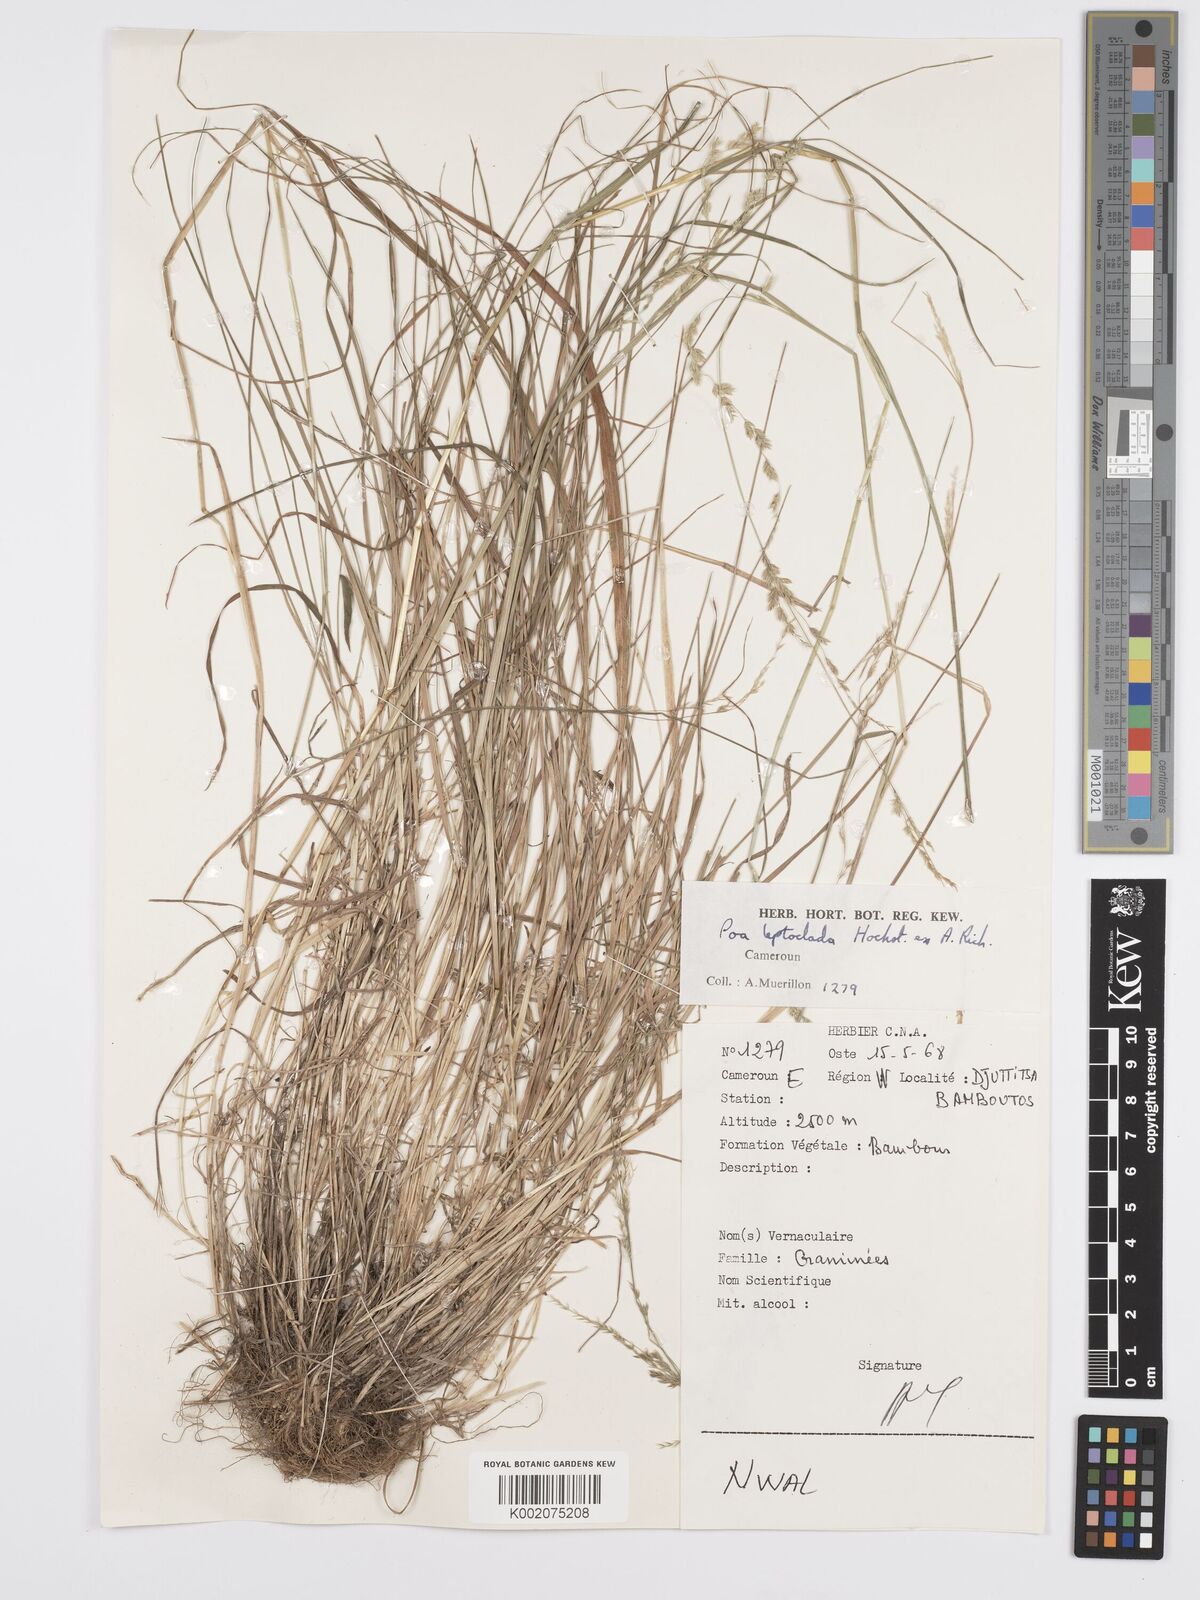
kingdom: Plantae
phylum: Tracheophyta
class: Liliopsida
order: Poales
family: Poaceae
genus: Poa
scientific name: Poa leptoclada
